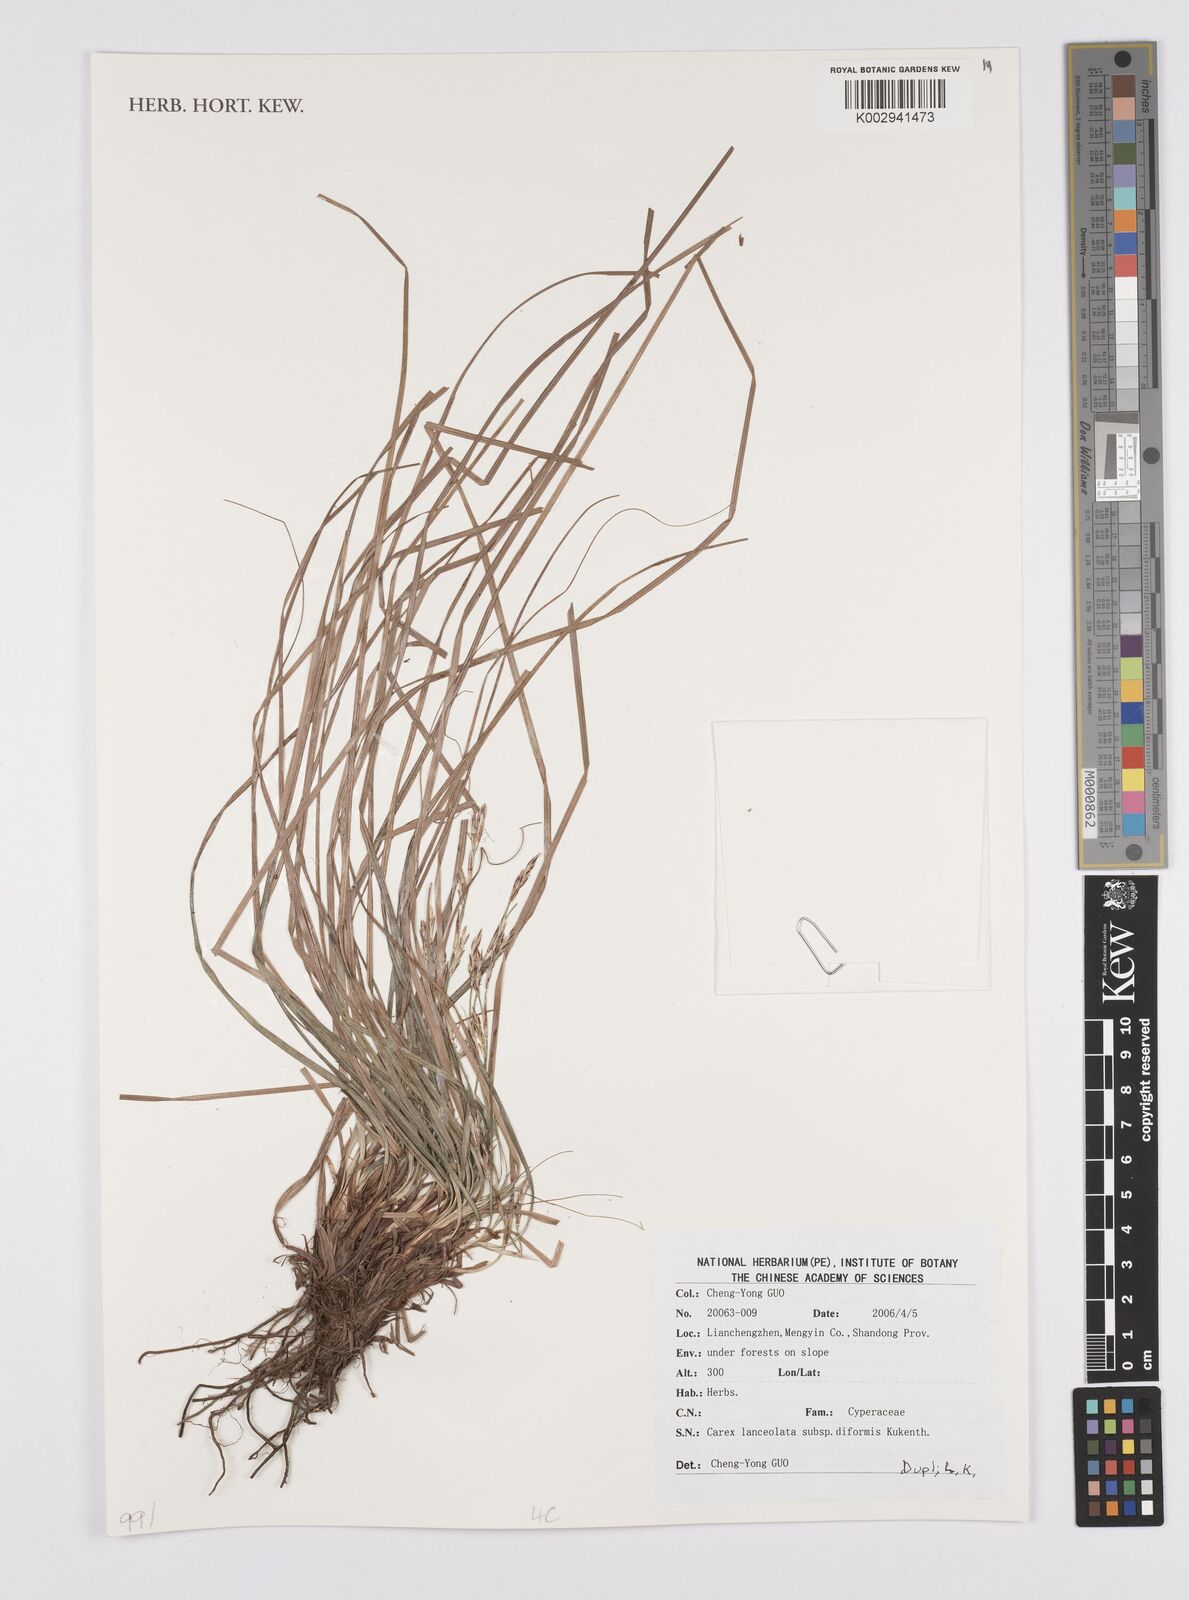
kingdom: Plantae
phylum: Tracheophyta
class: Liliopsida
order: Poales
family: Cyperaceae
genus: Carex
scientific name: Carex lanceolata
